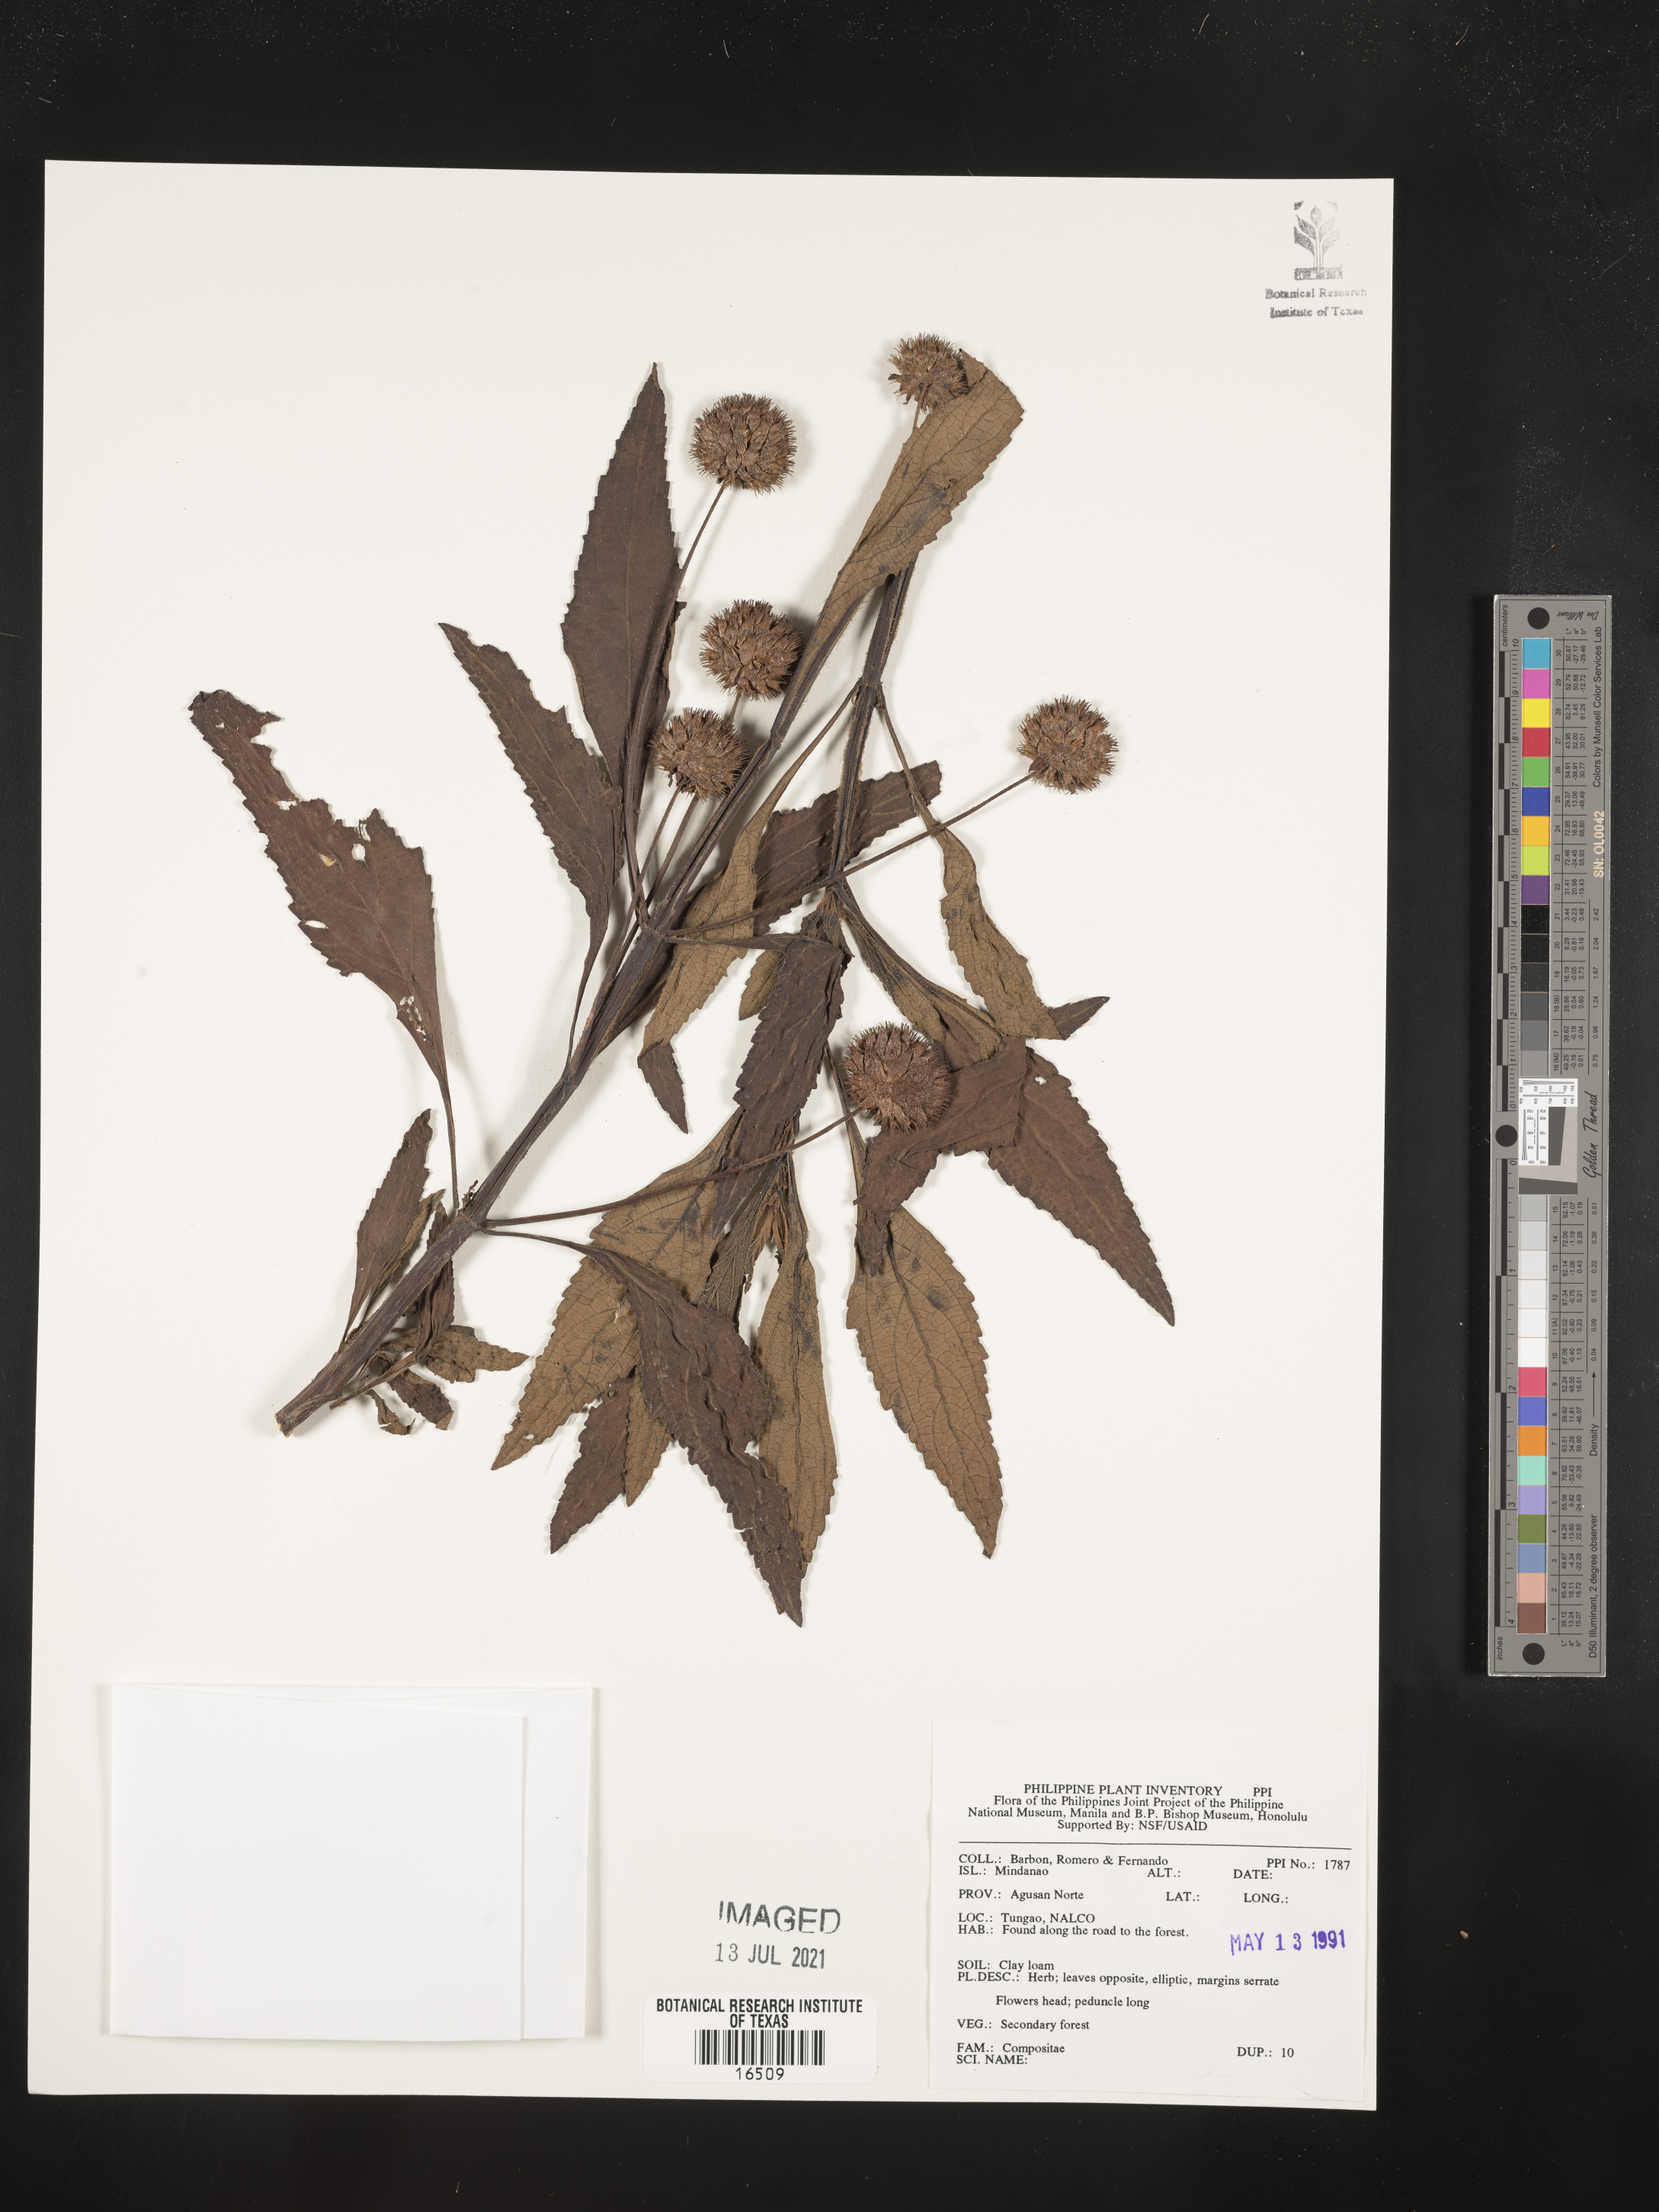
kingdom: Plantae
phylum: Tracheophyta
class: Magnoliopsida
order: Asterales
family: Asteraceae
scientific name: Asteraceae
